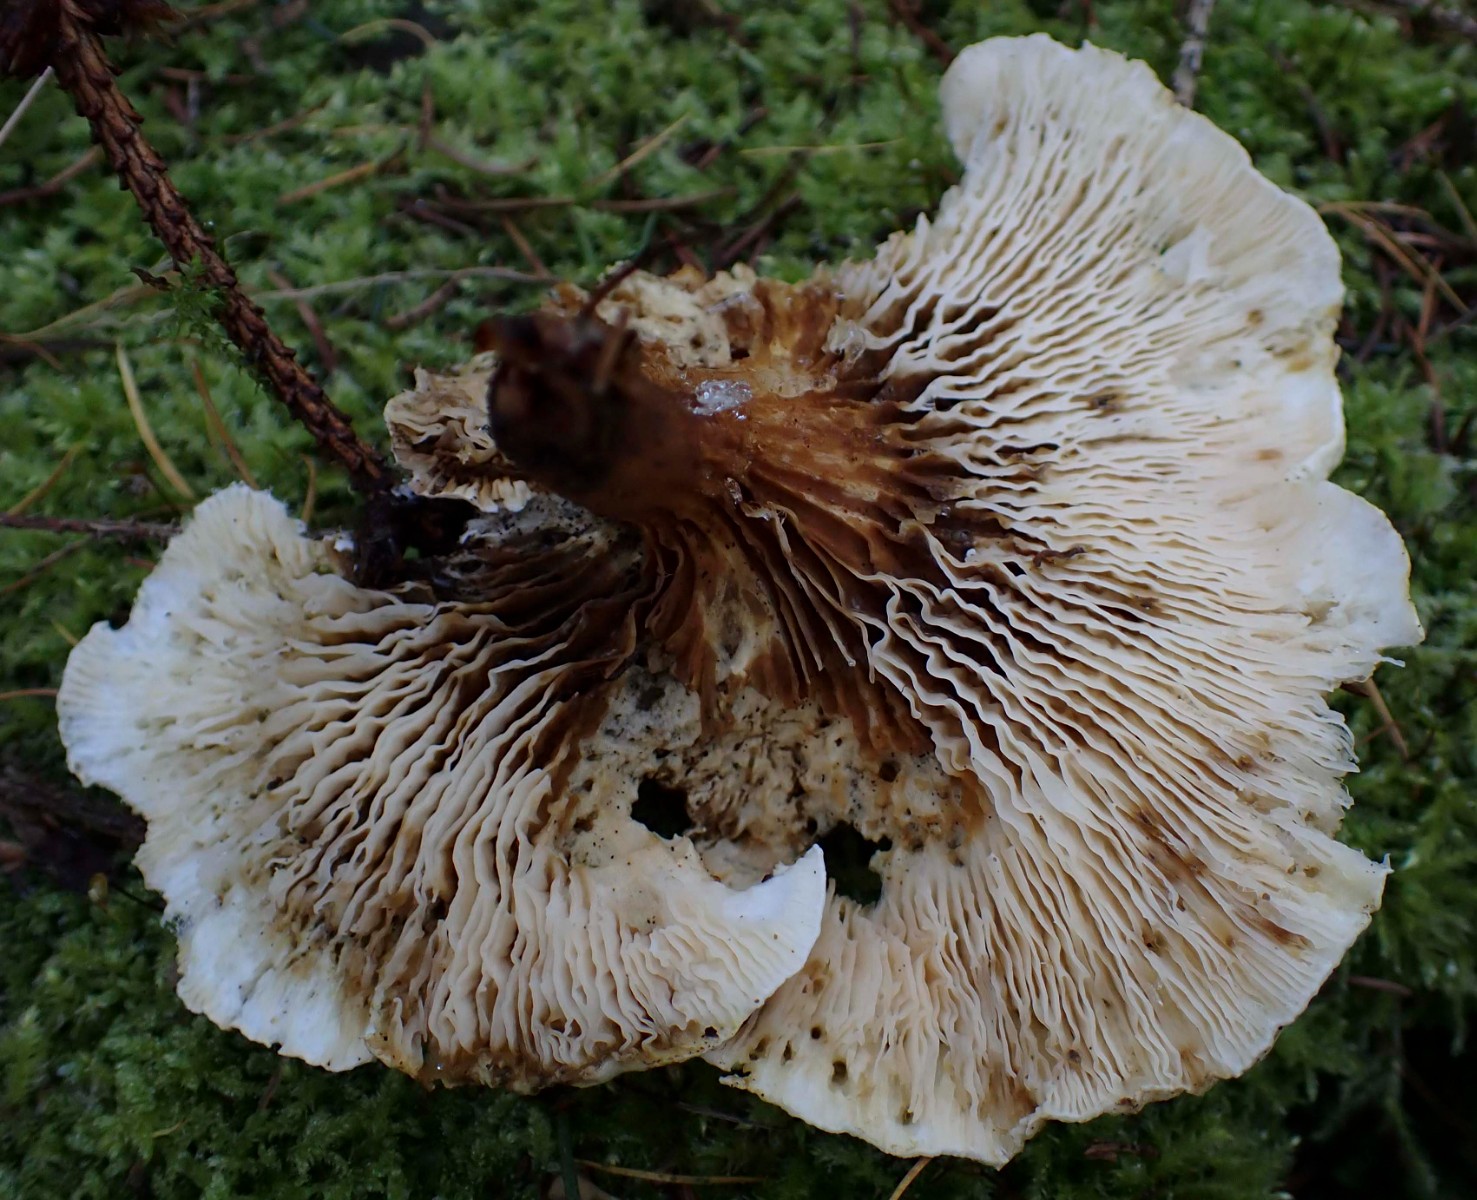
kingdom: Fungi
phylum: Basidiomycota
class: Agaricomycetes
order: Boletales
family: Hygrophoropsidaceae
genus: Hygrophoropsis
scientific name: Hygrophoropsis pallida
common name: bleg orangekantarel
